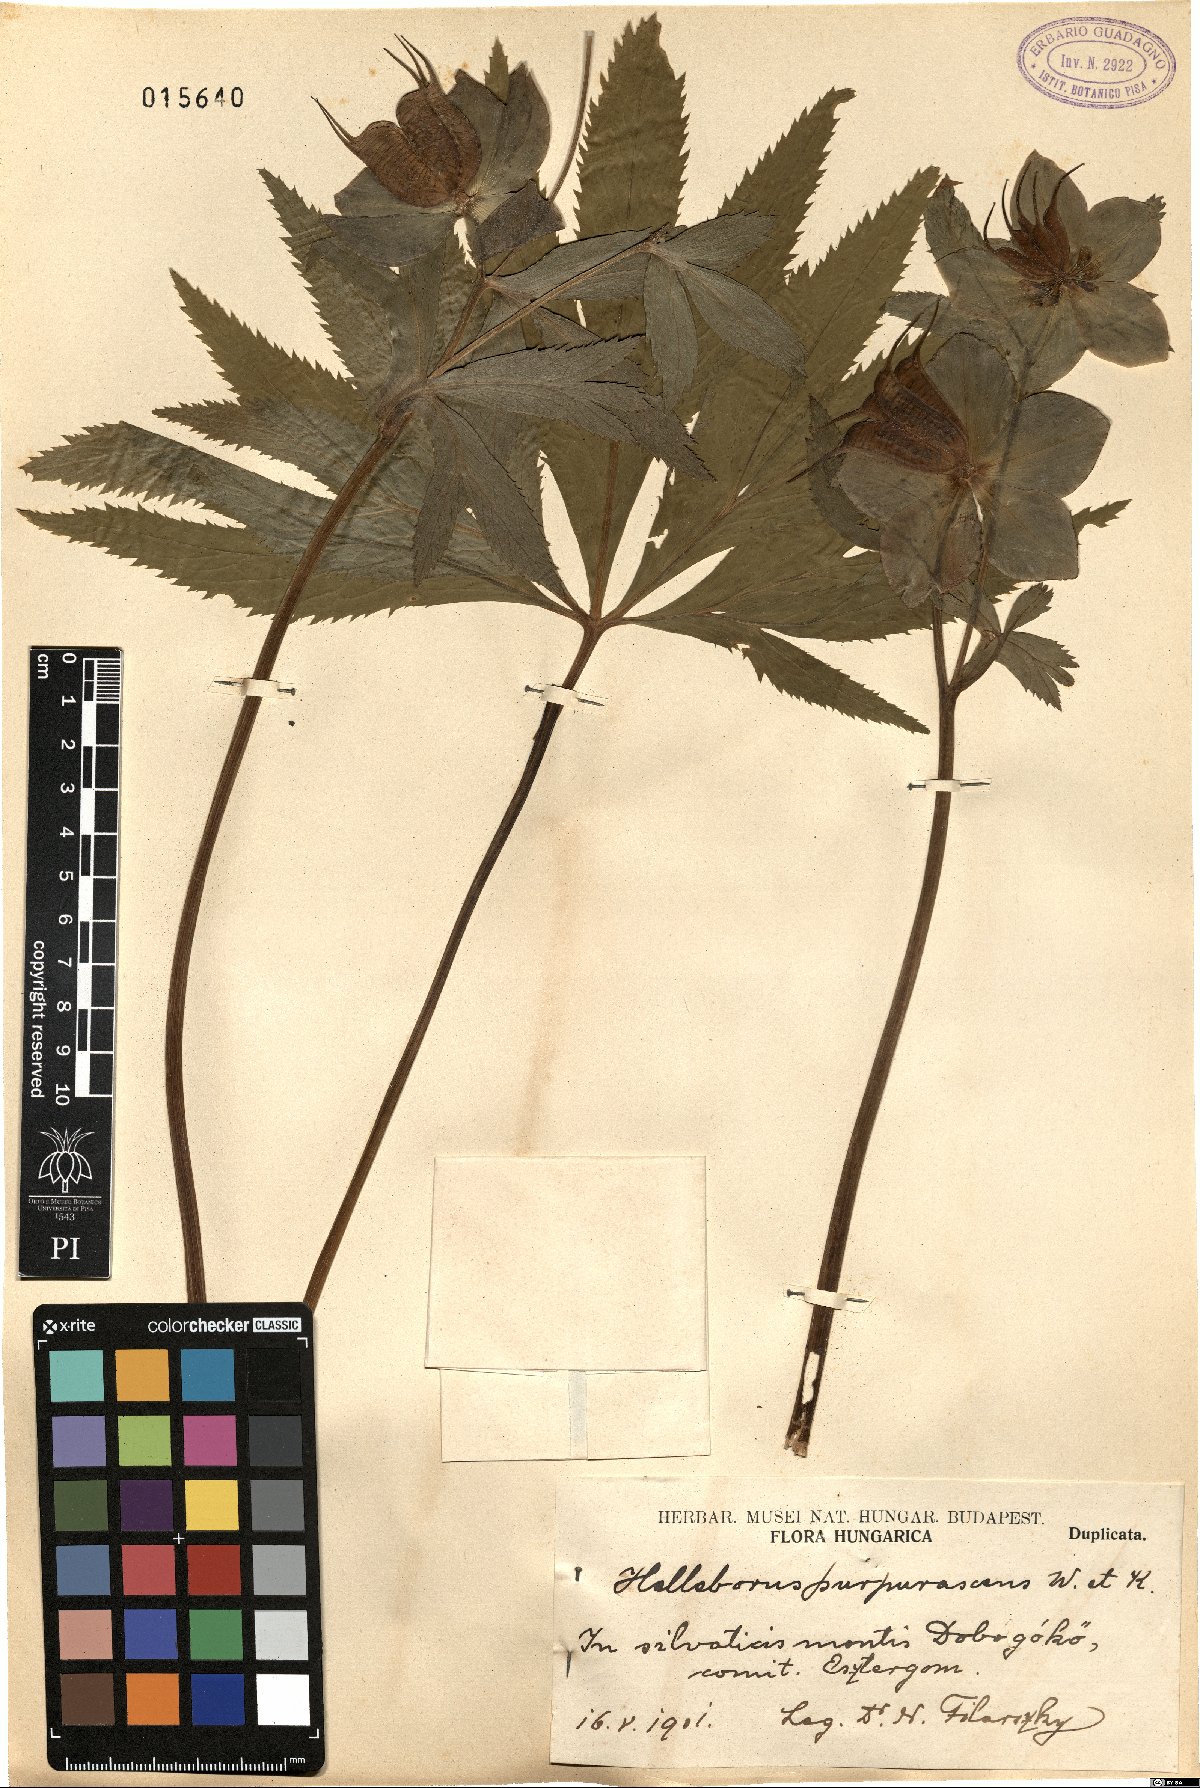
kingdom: Plantae
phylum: Tracheophyta
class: Magnoliopsida
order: Ranunculales
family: Ranunculaceae
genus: Helleborus
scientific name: Helleborus purpurascens
